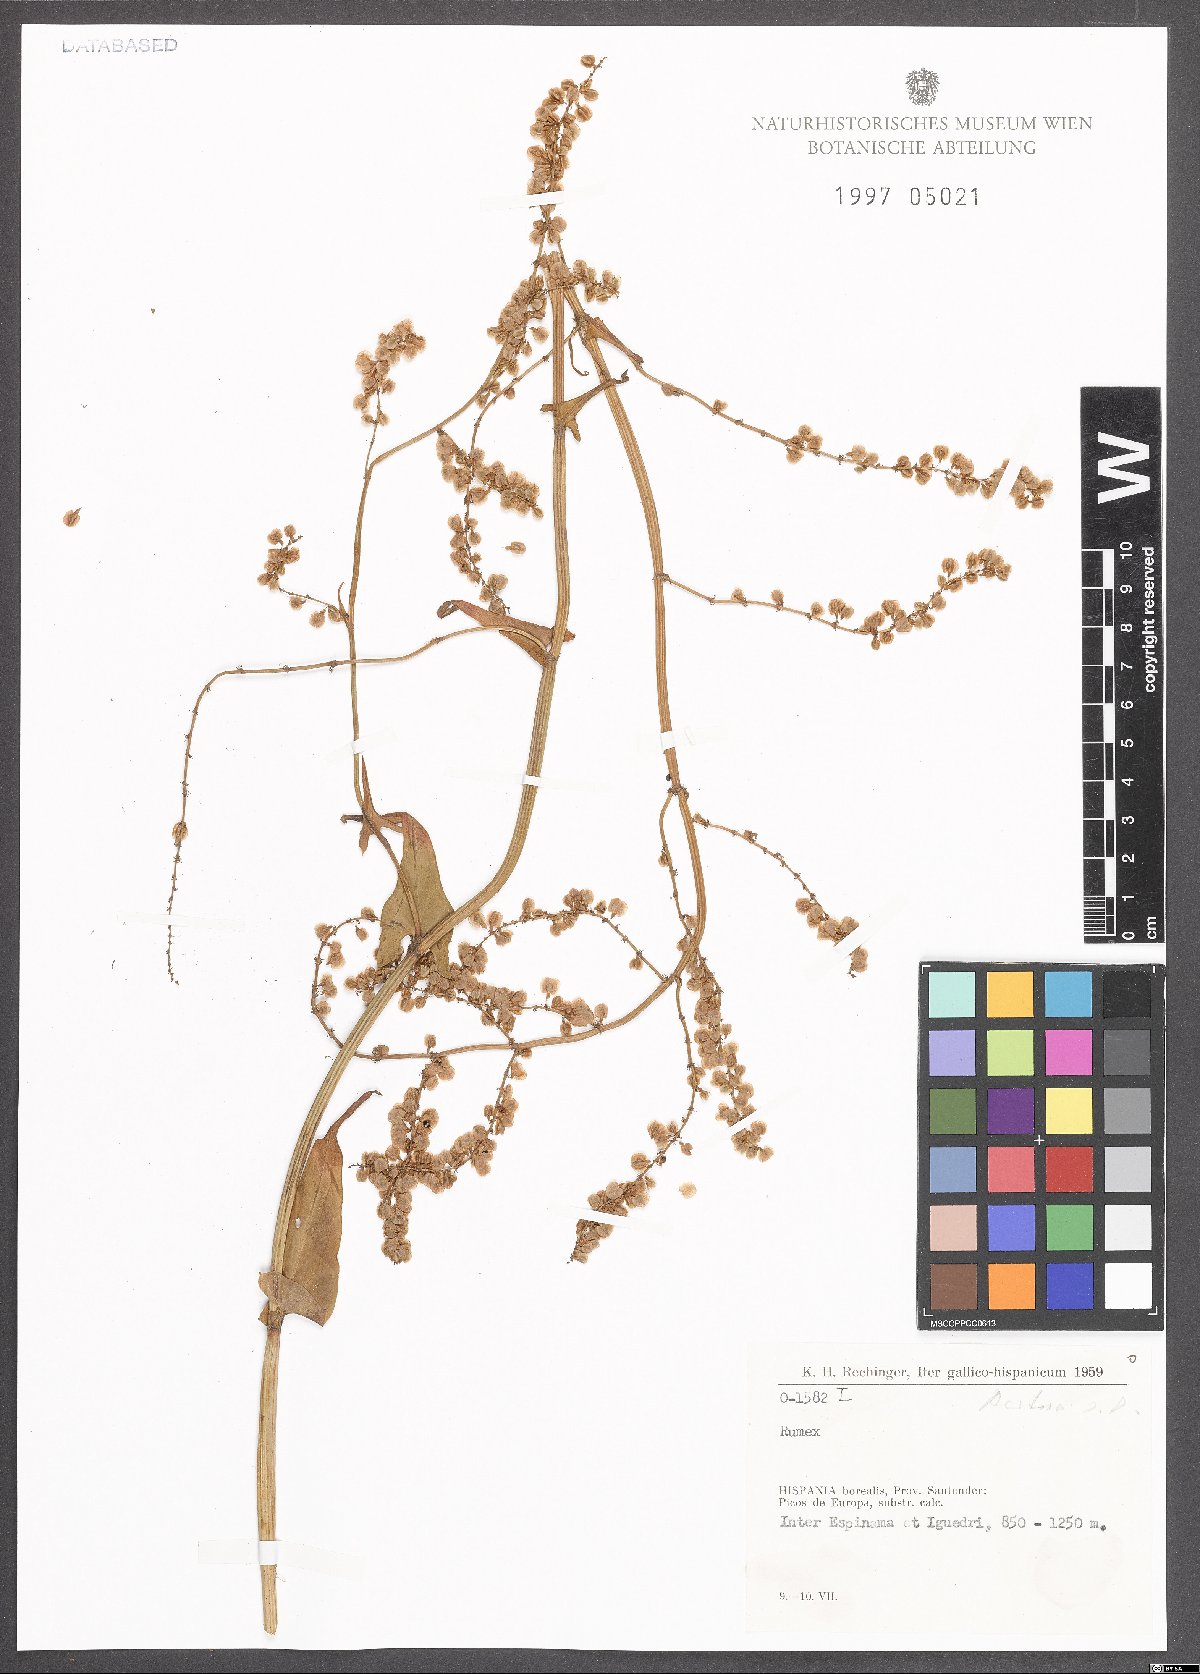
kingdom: Plantae
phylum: Tracheophyta
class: Magnoliopsida
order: Caryophyllales
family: Polygonaceae
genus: Rumex
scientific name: Rumex acetosa
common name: Garden sorrel
